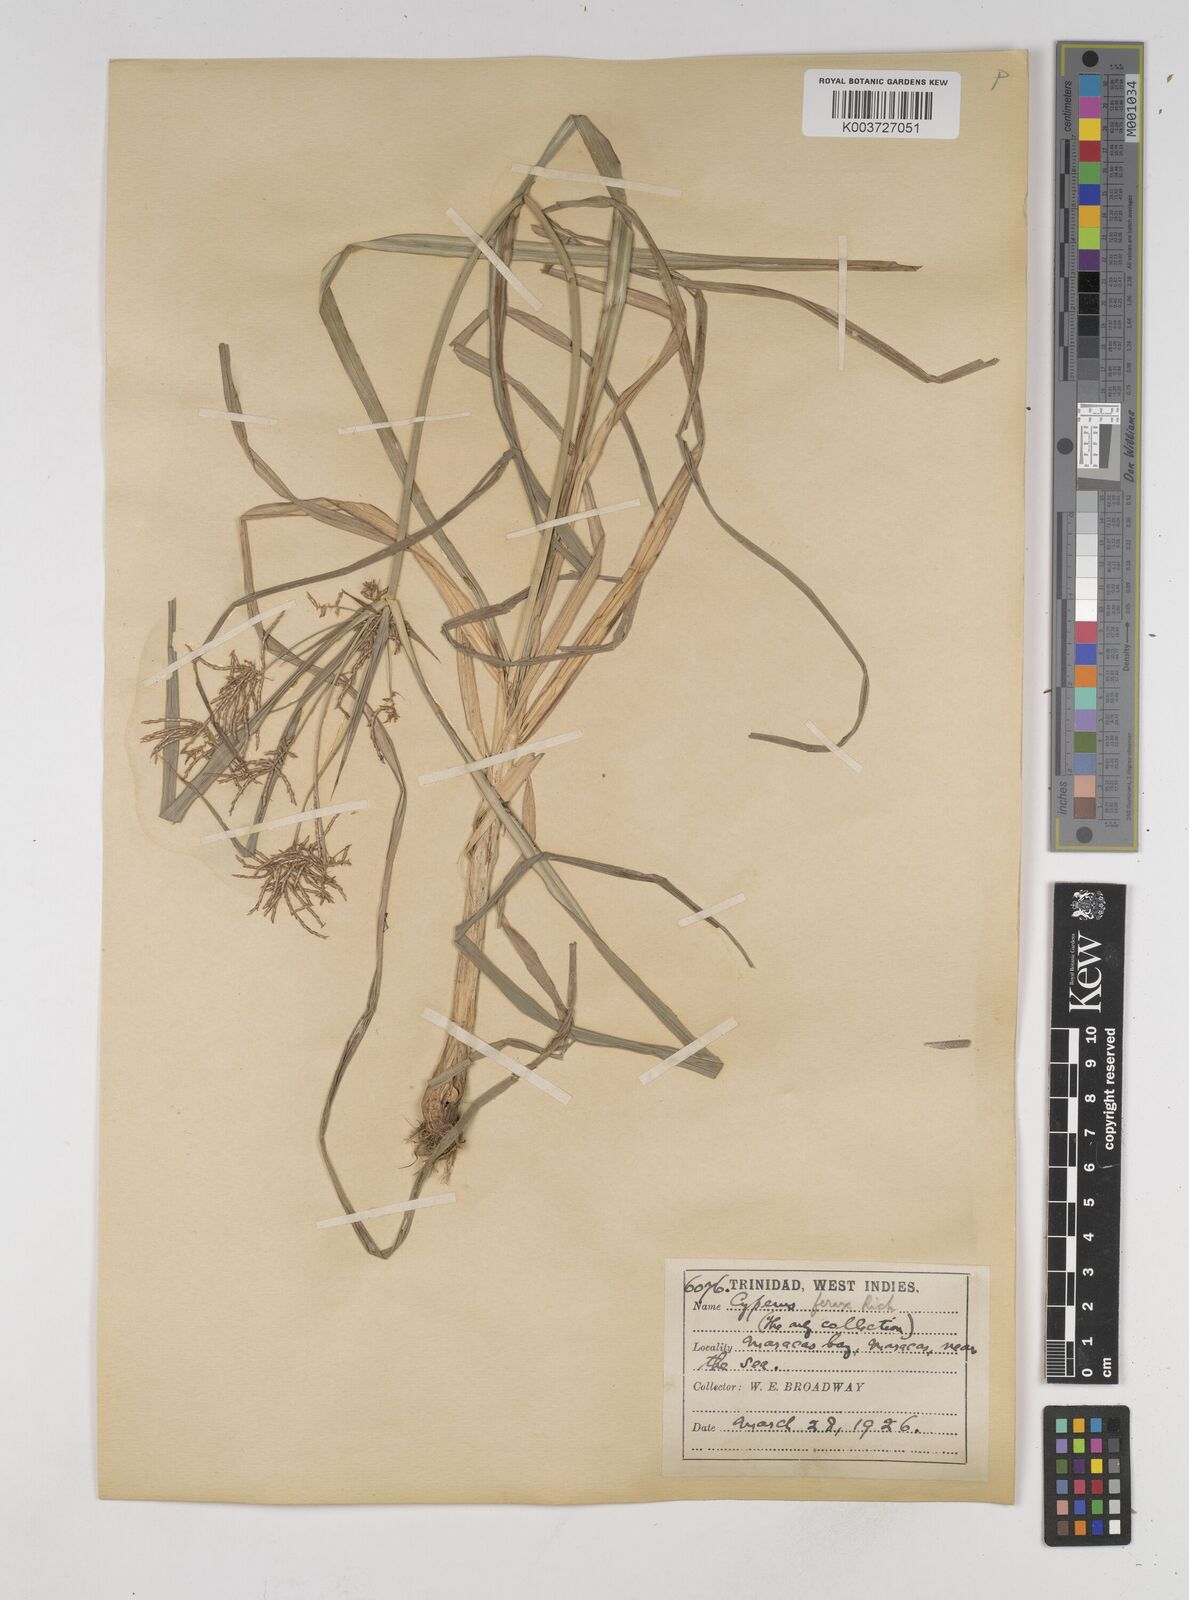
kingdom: Plantae
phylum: Tracheophyta
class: Liliopsida
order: Poales
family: Cyperaceae
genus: Cyperus
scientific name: Cyperus odoratus
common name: Fragrant flatsedge
